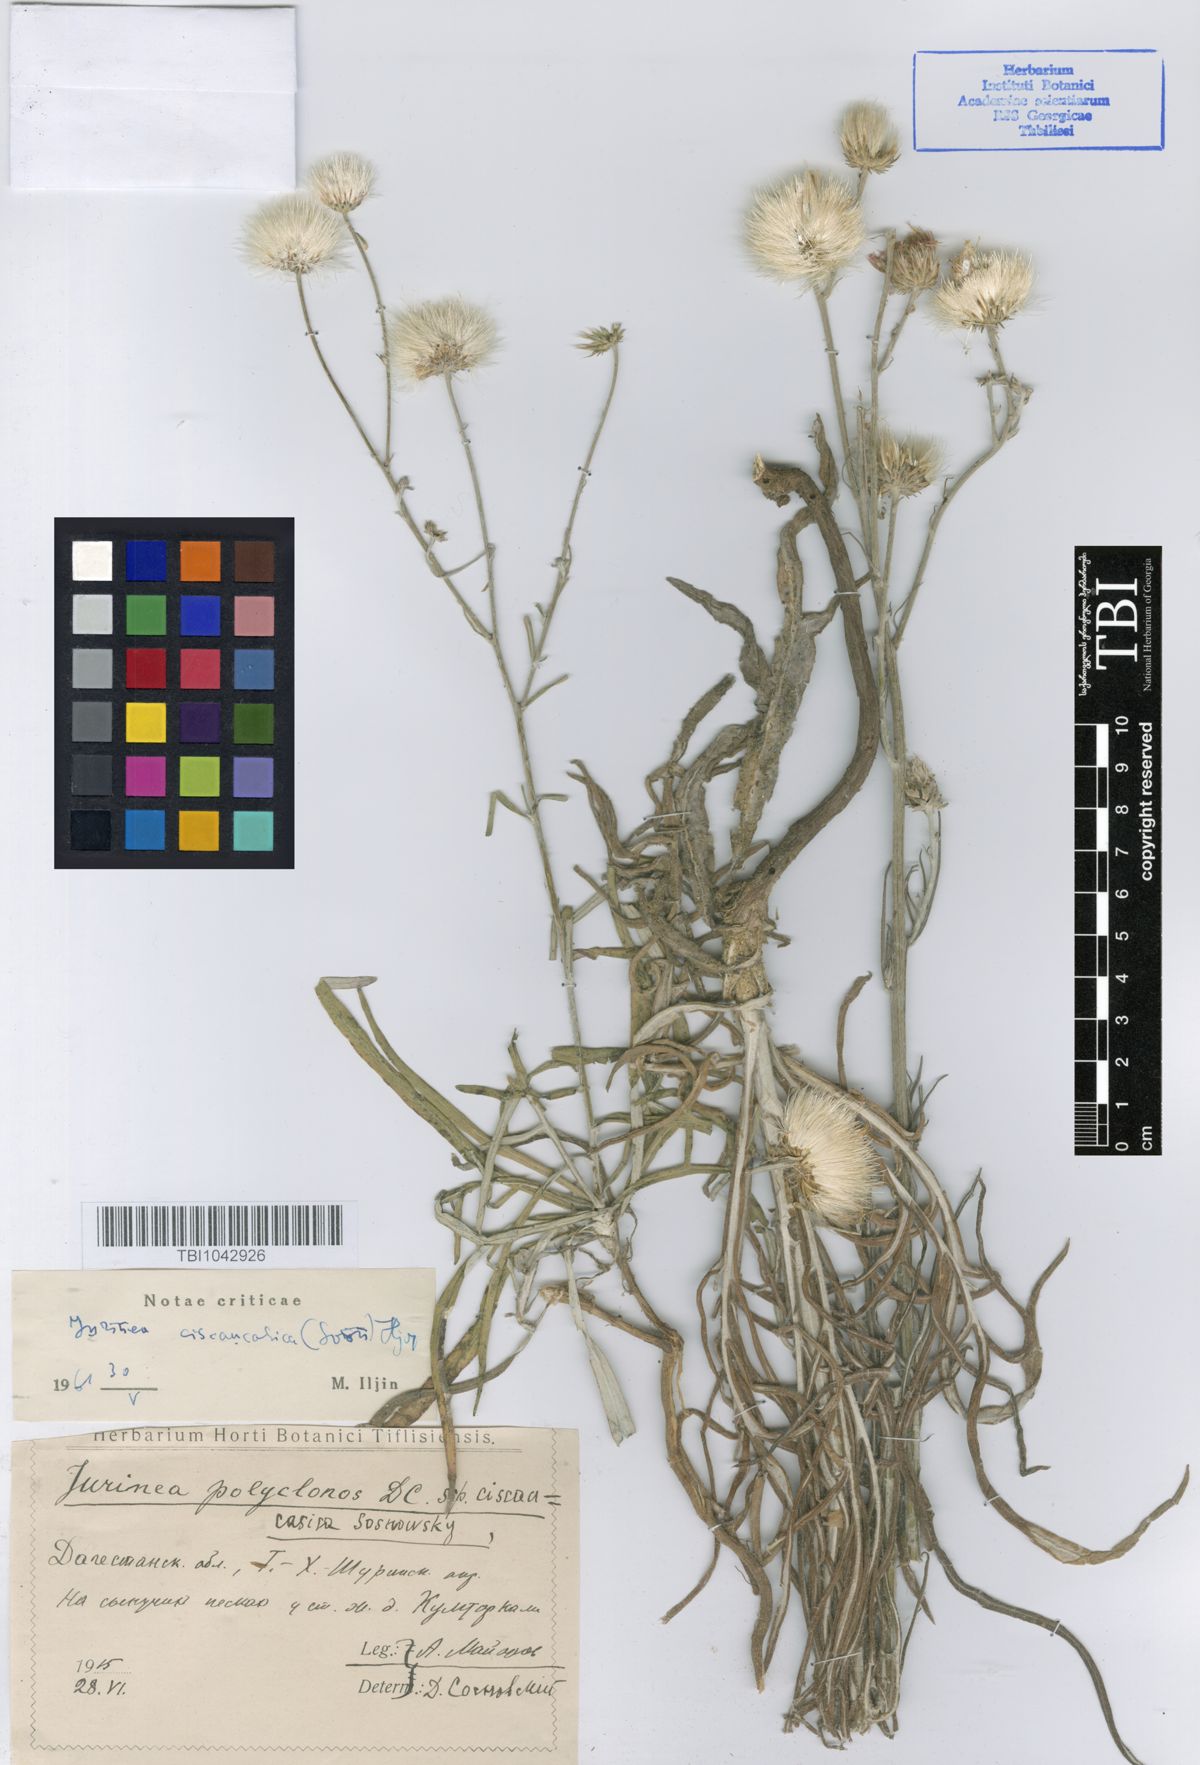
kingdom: Plantae
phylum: Tracheophyta
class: Magnoliopsida
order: Asterales
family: Asteraceae
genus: Jurinea
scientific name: Jurinea ciscaucasica
